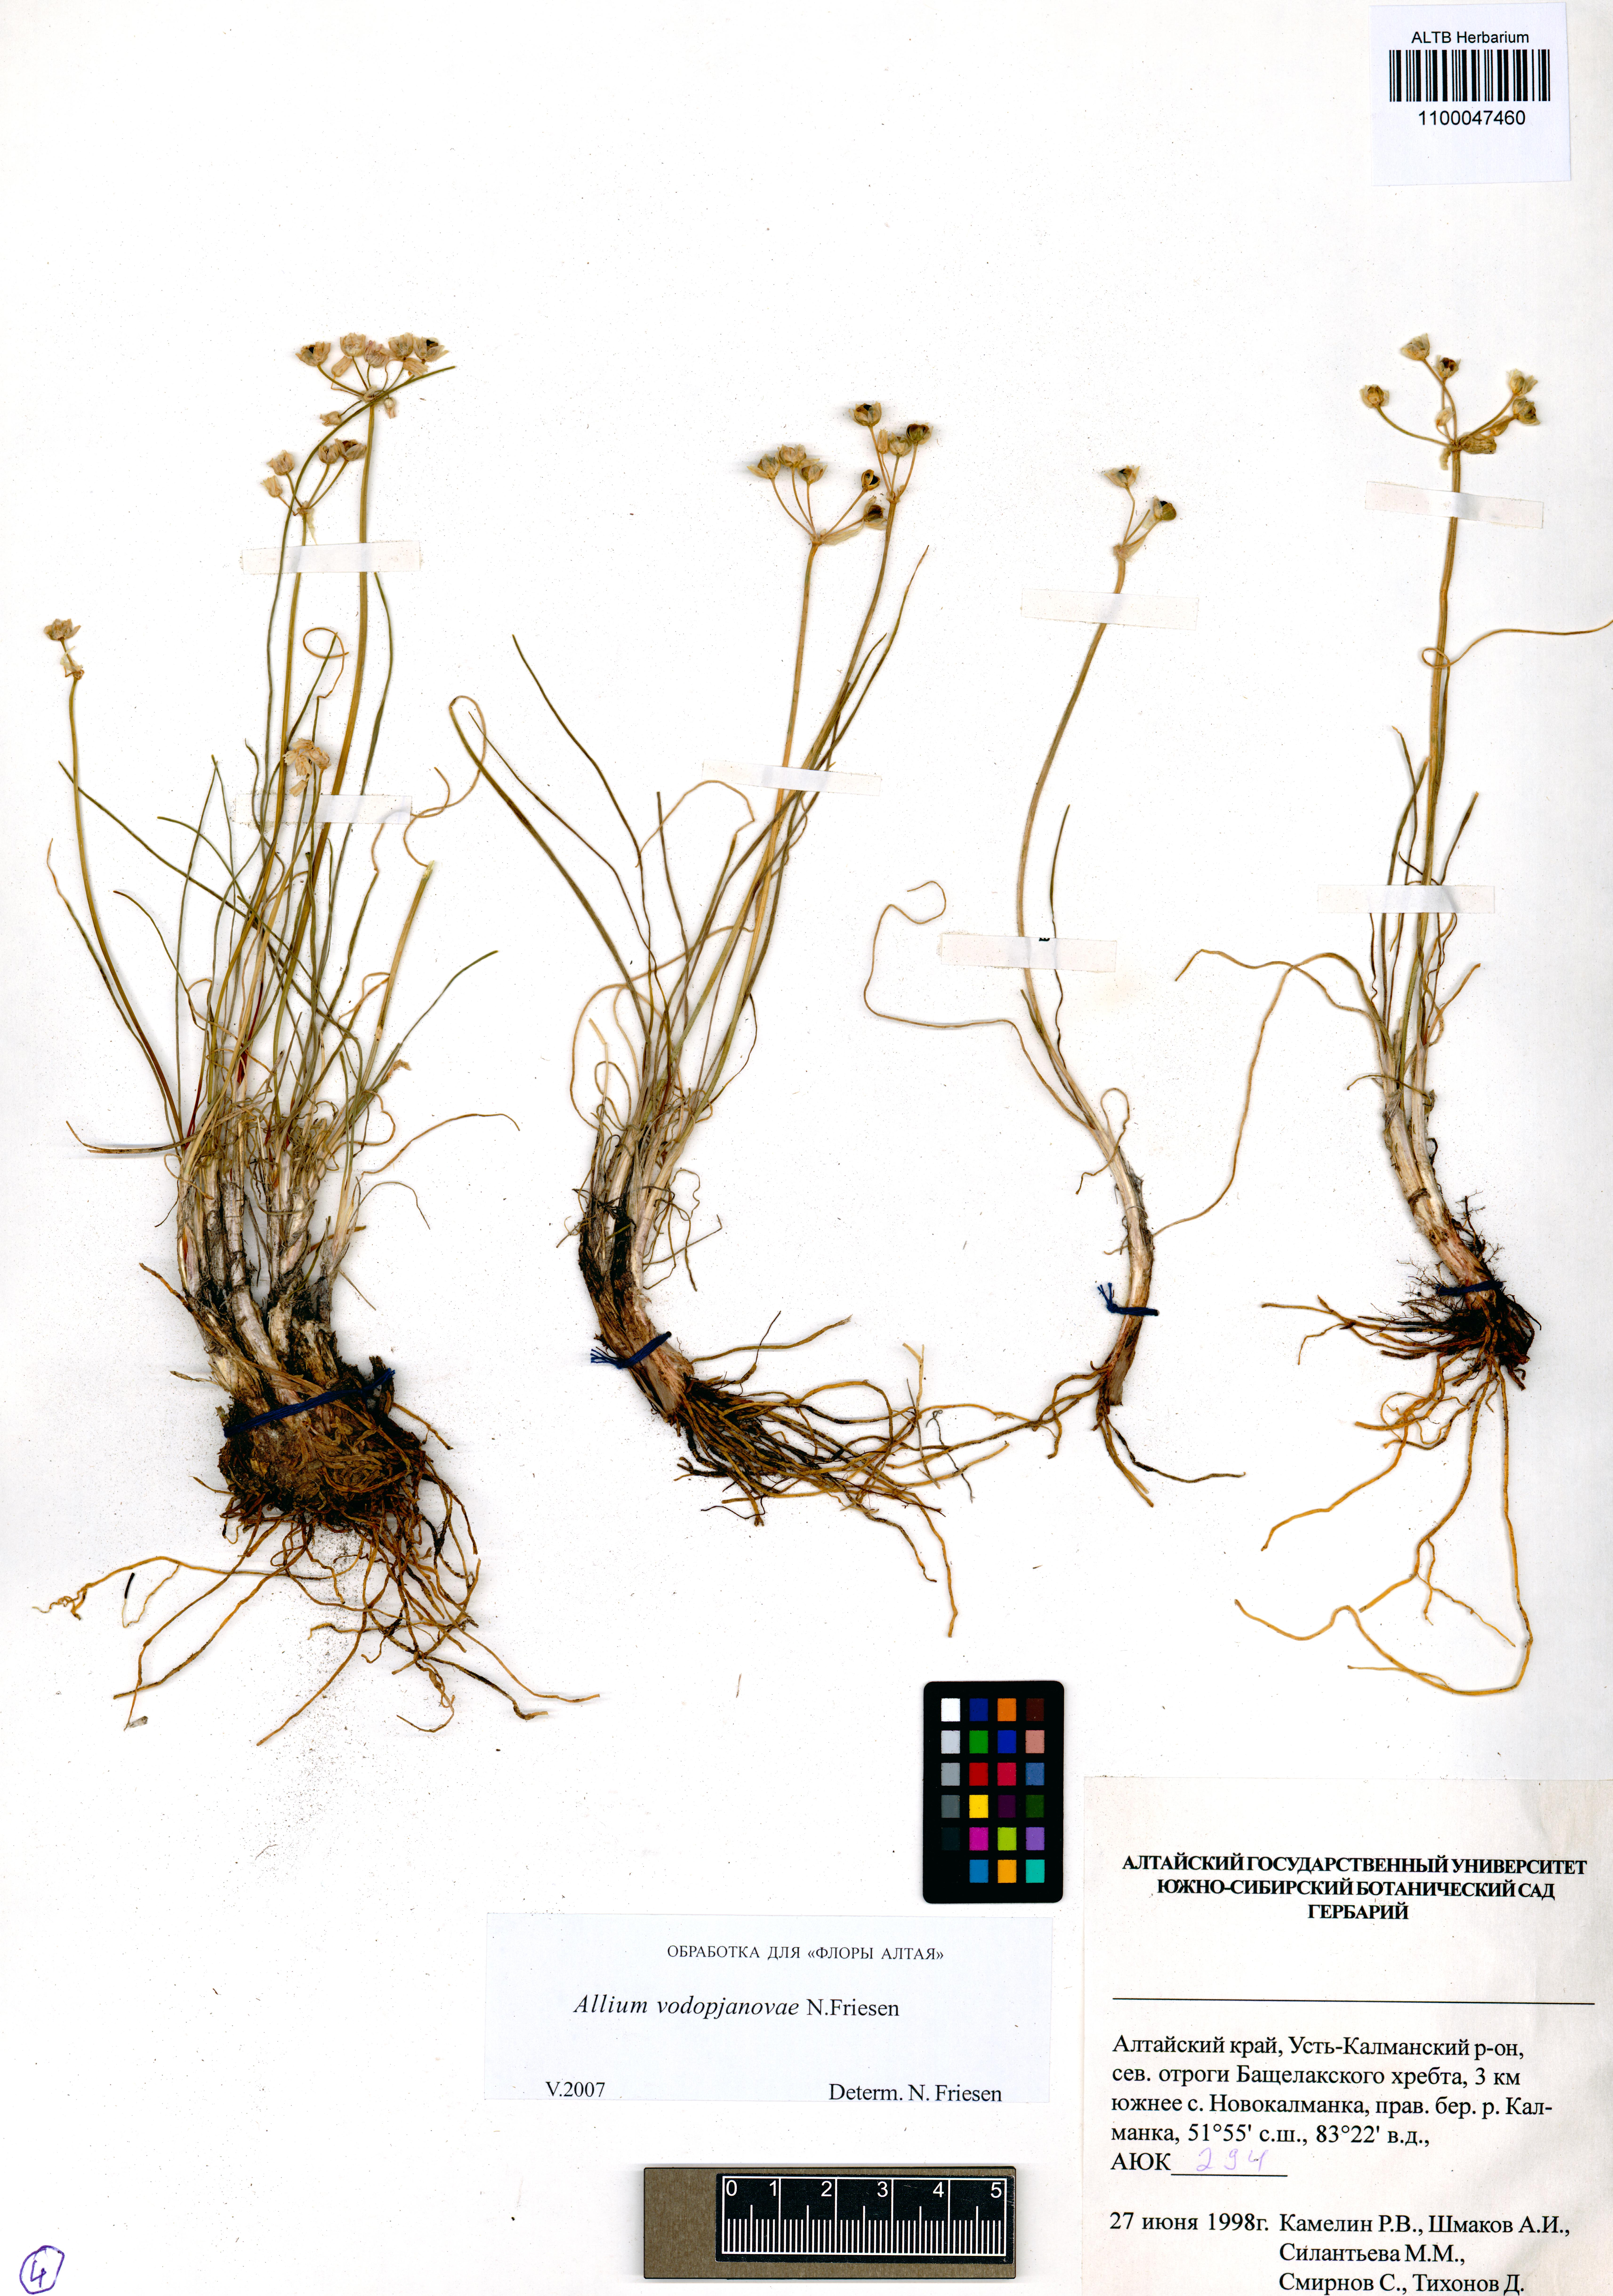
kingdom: Plantae
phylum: Tracheophyta
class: Liliopsida
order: Asparagales
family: Amaryllidaceae
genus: Allium
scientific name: Allium vodopjanovae
